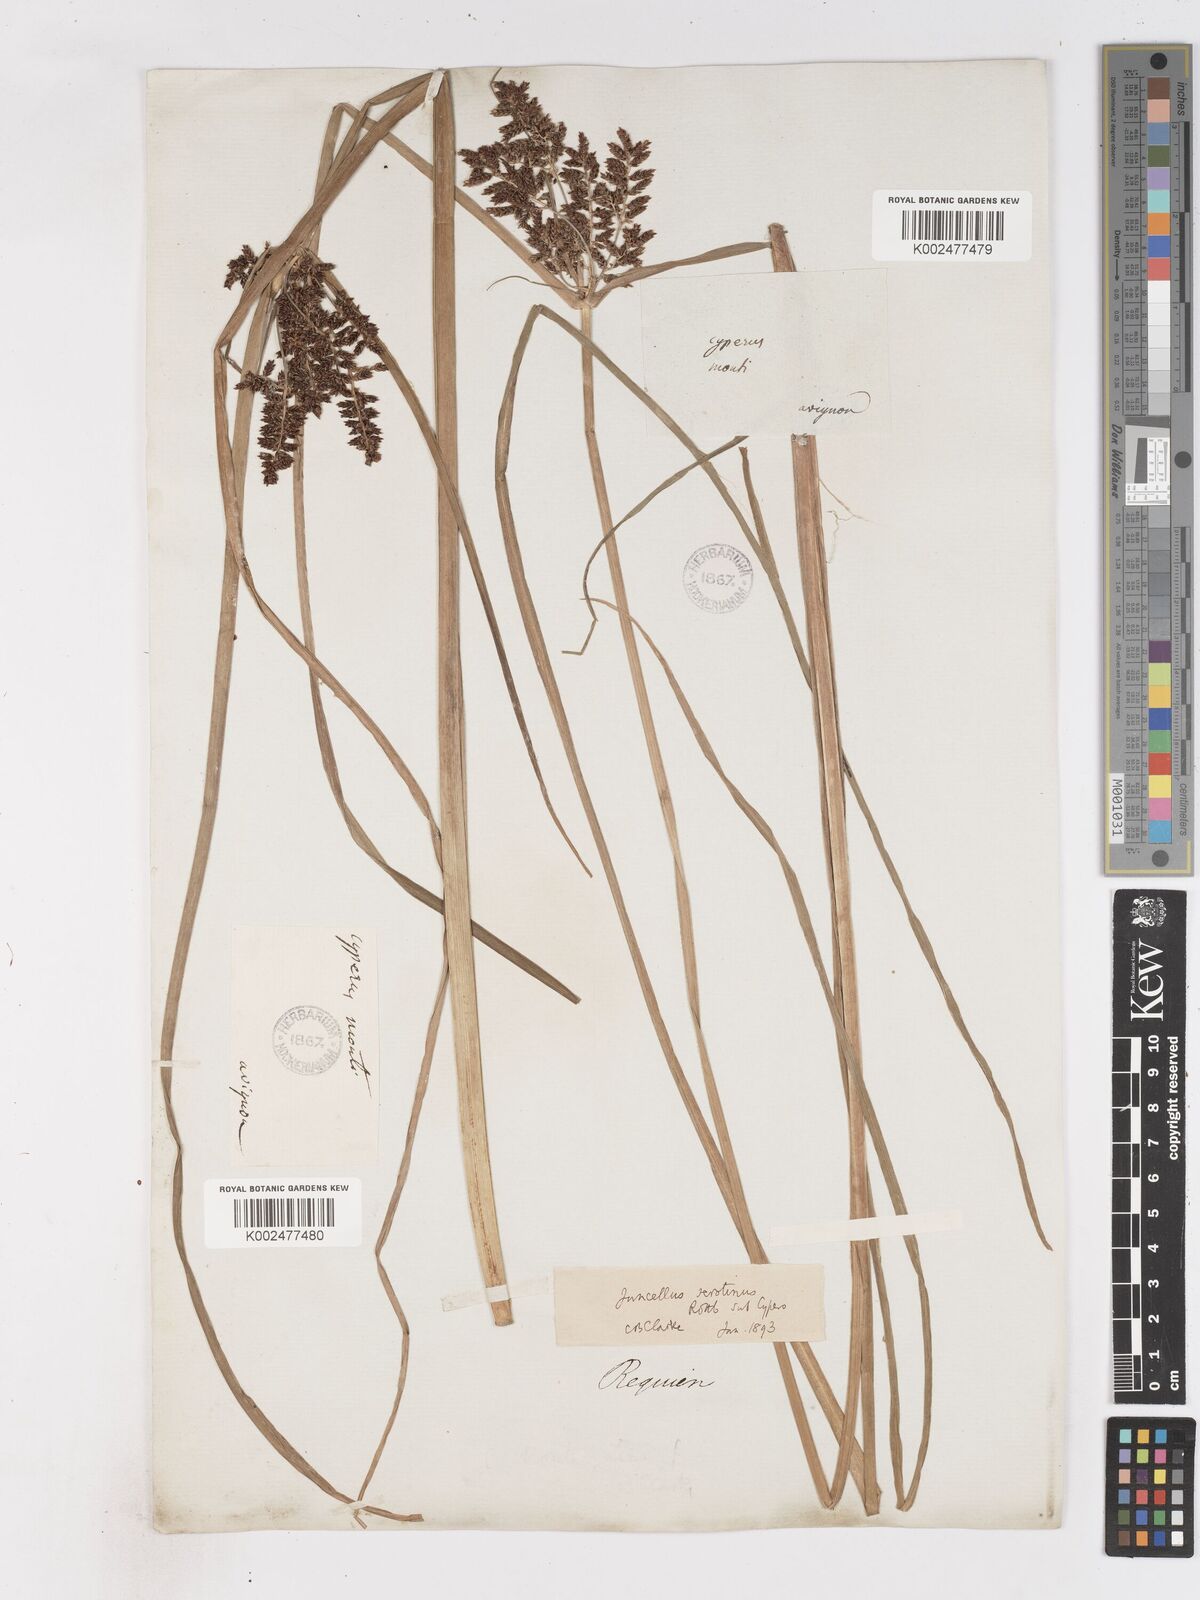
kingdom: Plantae
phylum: Tracheophyta
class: Liliopsida
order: Poales
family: Cyperaceae
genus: Cyperus
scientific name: Cyperus serotinus
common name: Tidalmarsh flatsedge
